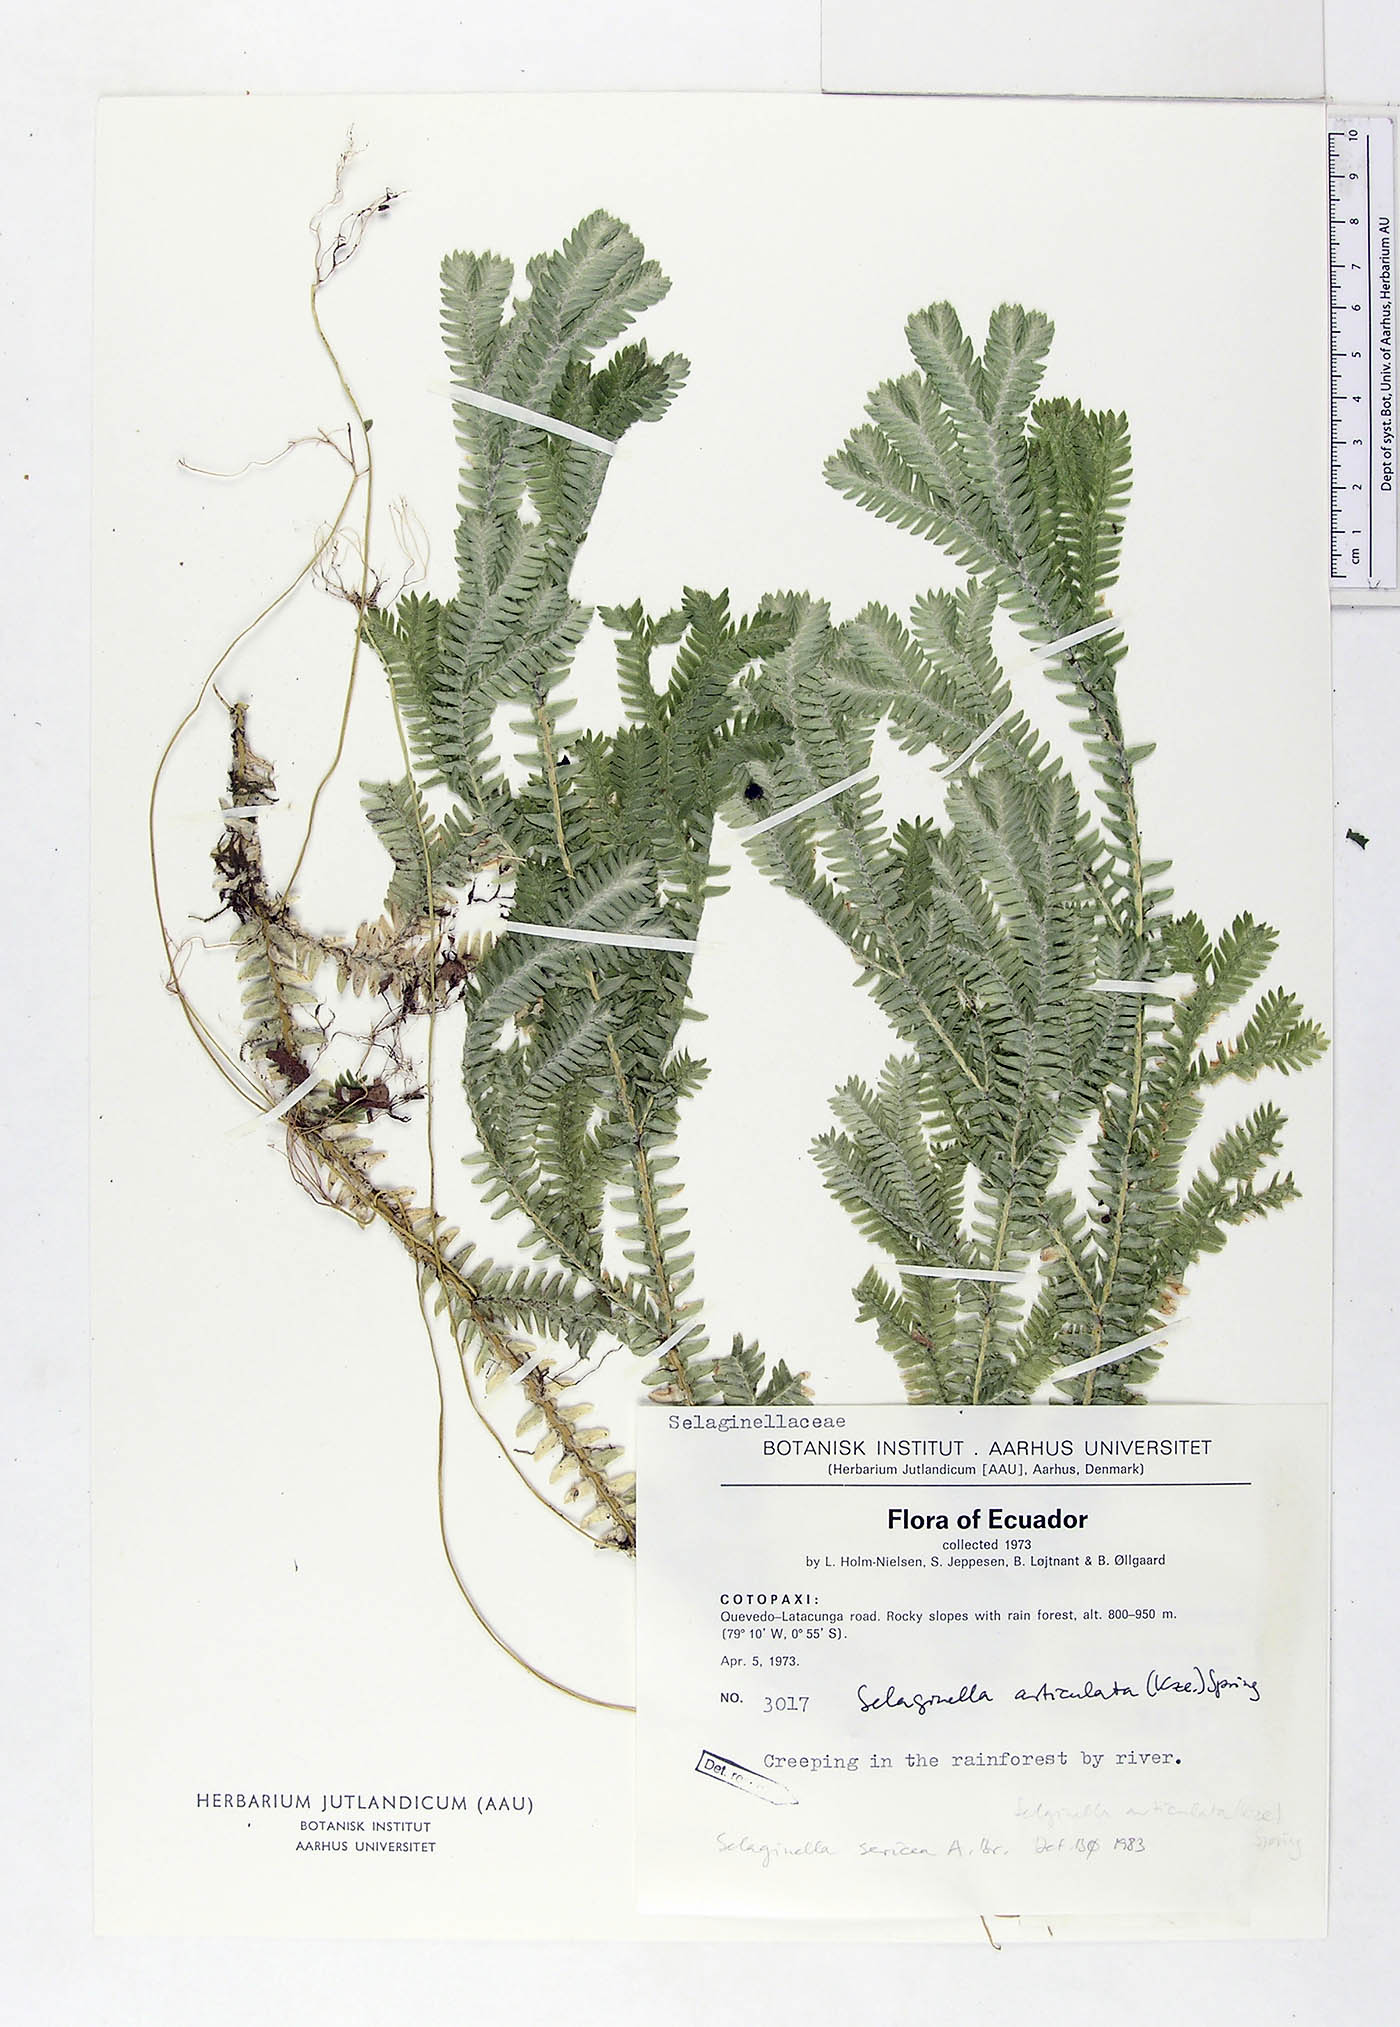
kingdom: Plantae
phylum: Tracheophyta
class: Lycopodiopsida
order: Selaginellales
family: Selaginellaceae
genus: Selaginella
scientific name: Selaginella sericea
